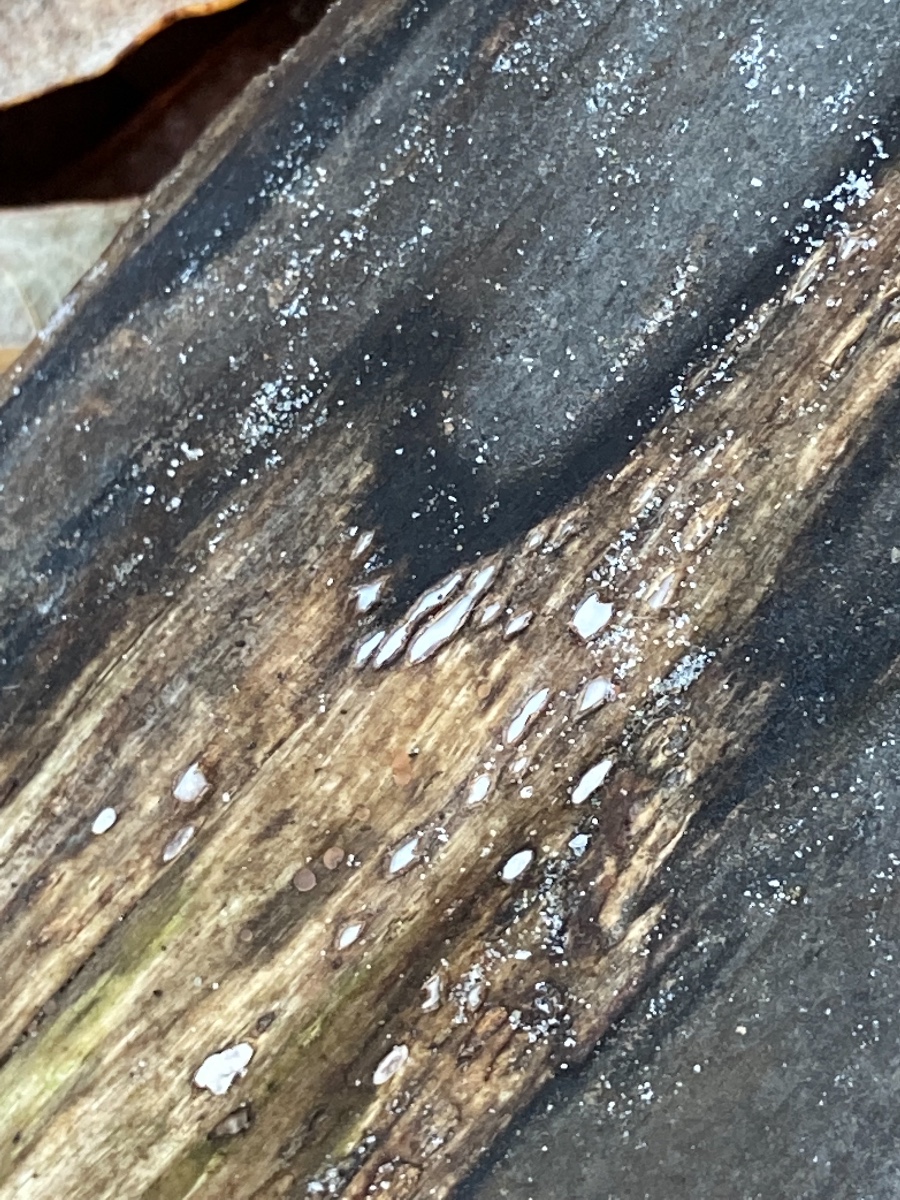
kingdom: Fungi
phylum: Ascomycota
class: Leotiomycetes
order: Chaetomellales
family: Marthamycetaceae
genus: Propolis
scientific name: Propolis farinosa
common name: almindelig vedsprængerskive
